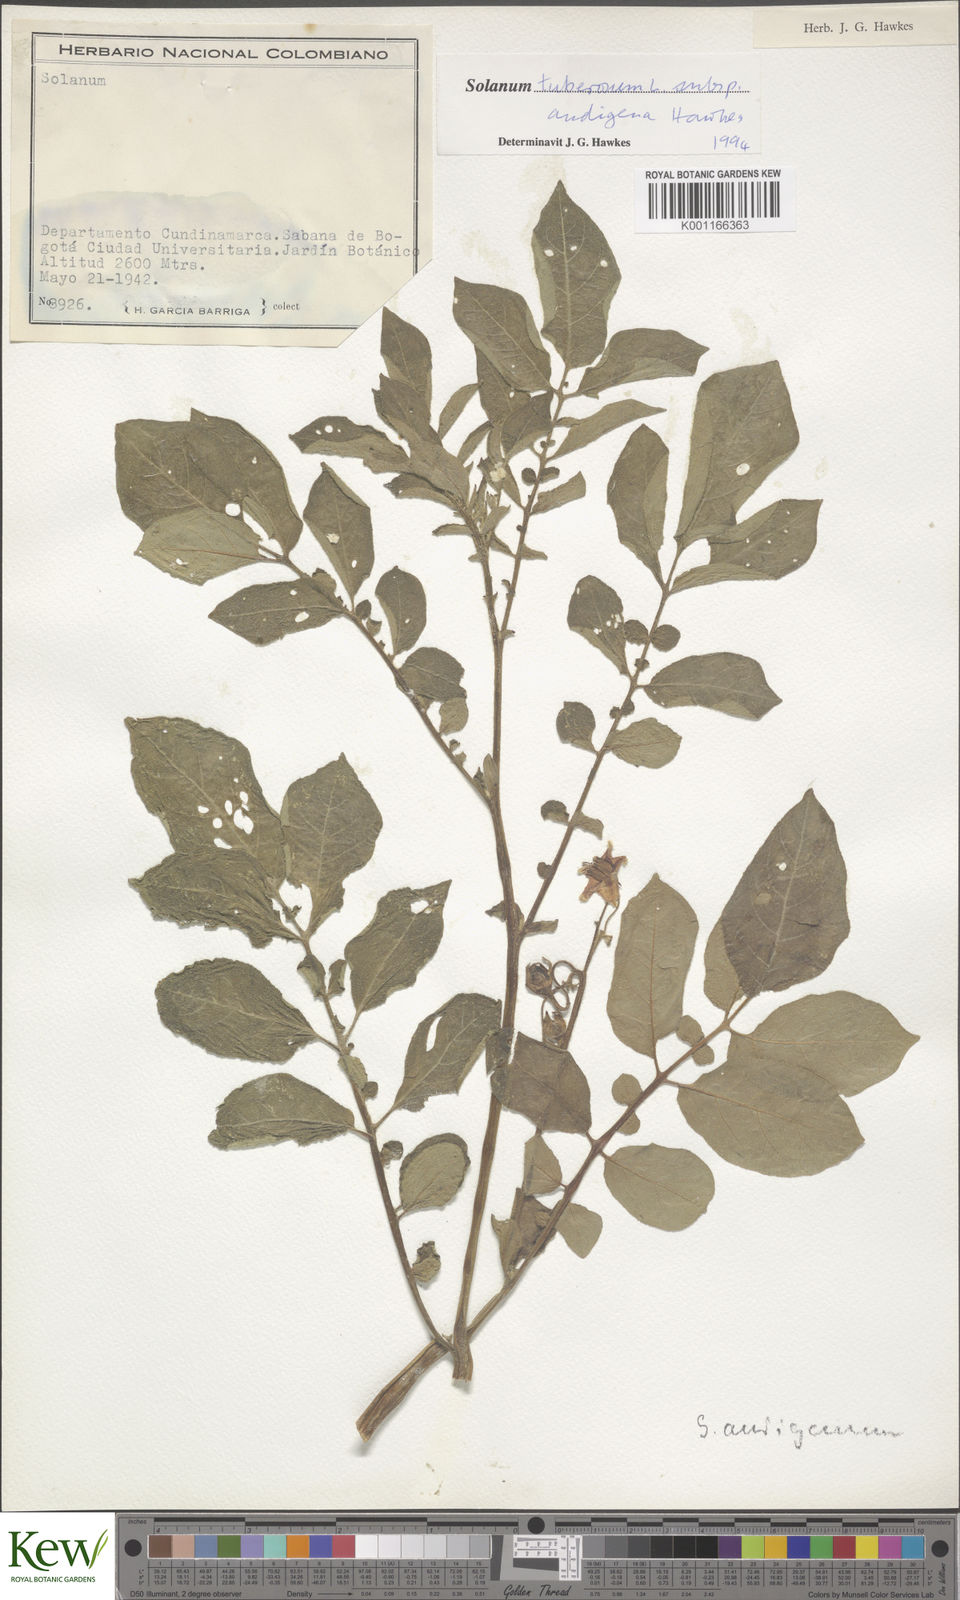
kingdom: Plantae
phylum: Tracheophyta
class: Magnoliopsida
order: Solanales
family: Solanaceae
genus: Solanum
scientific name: Solanum tuberosum
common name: Potato
